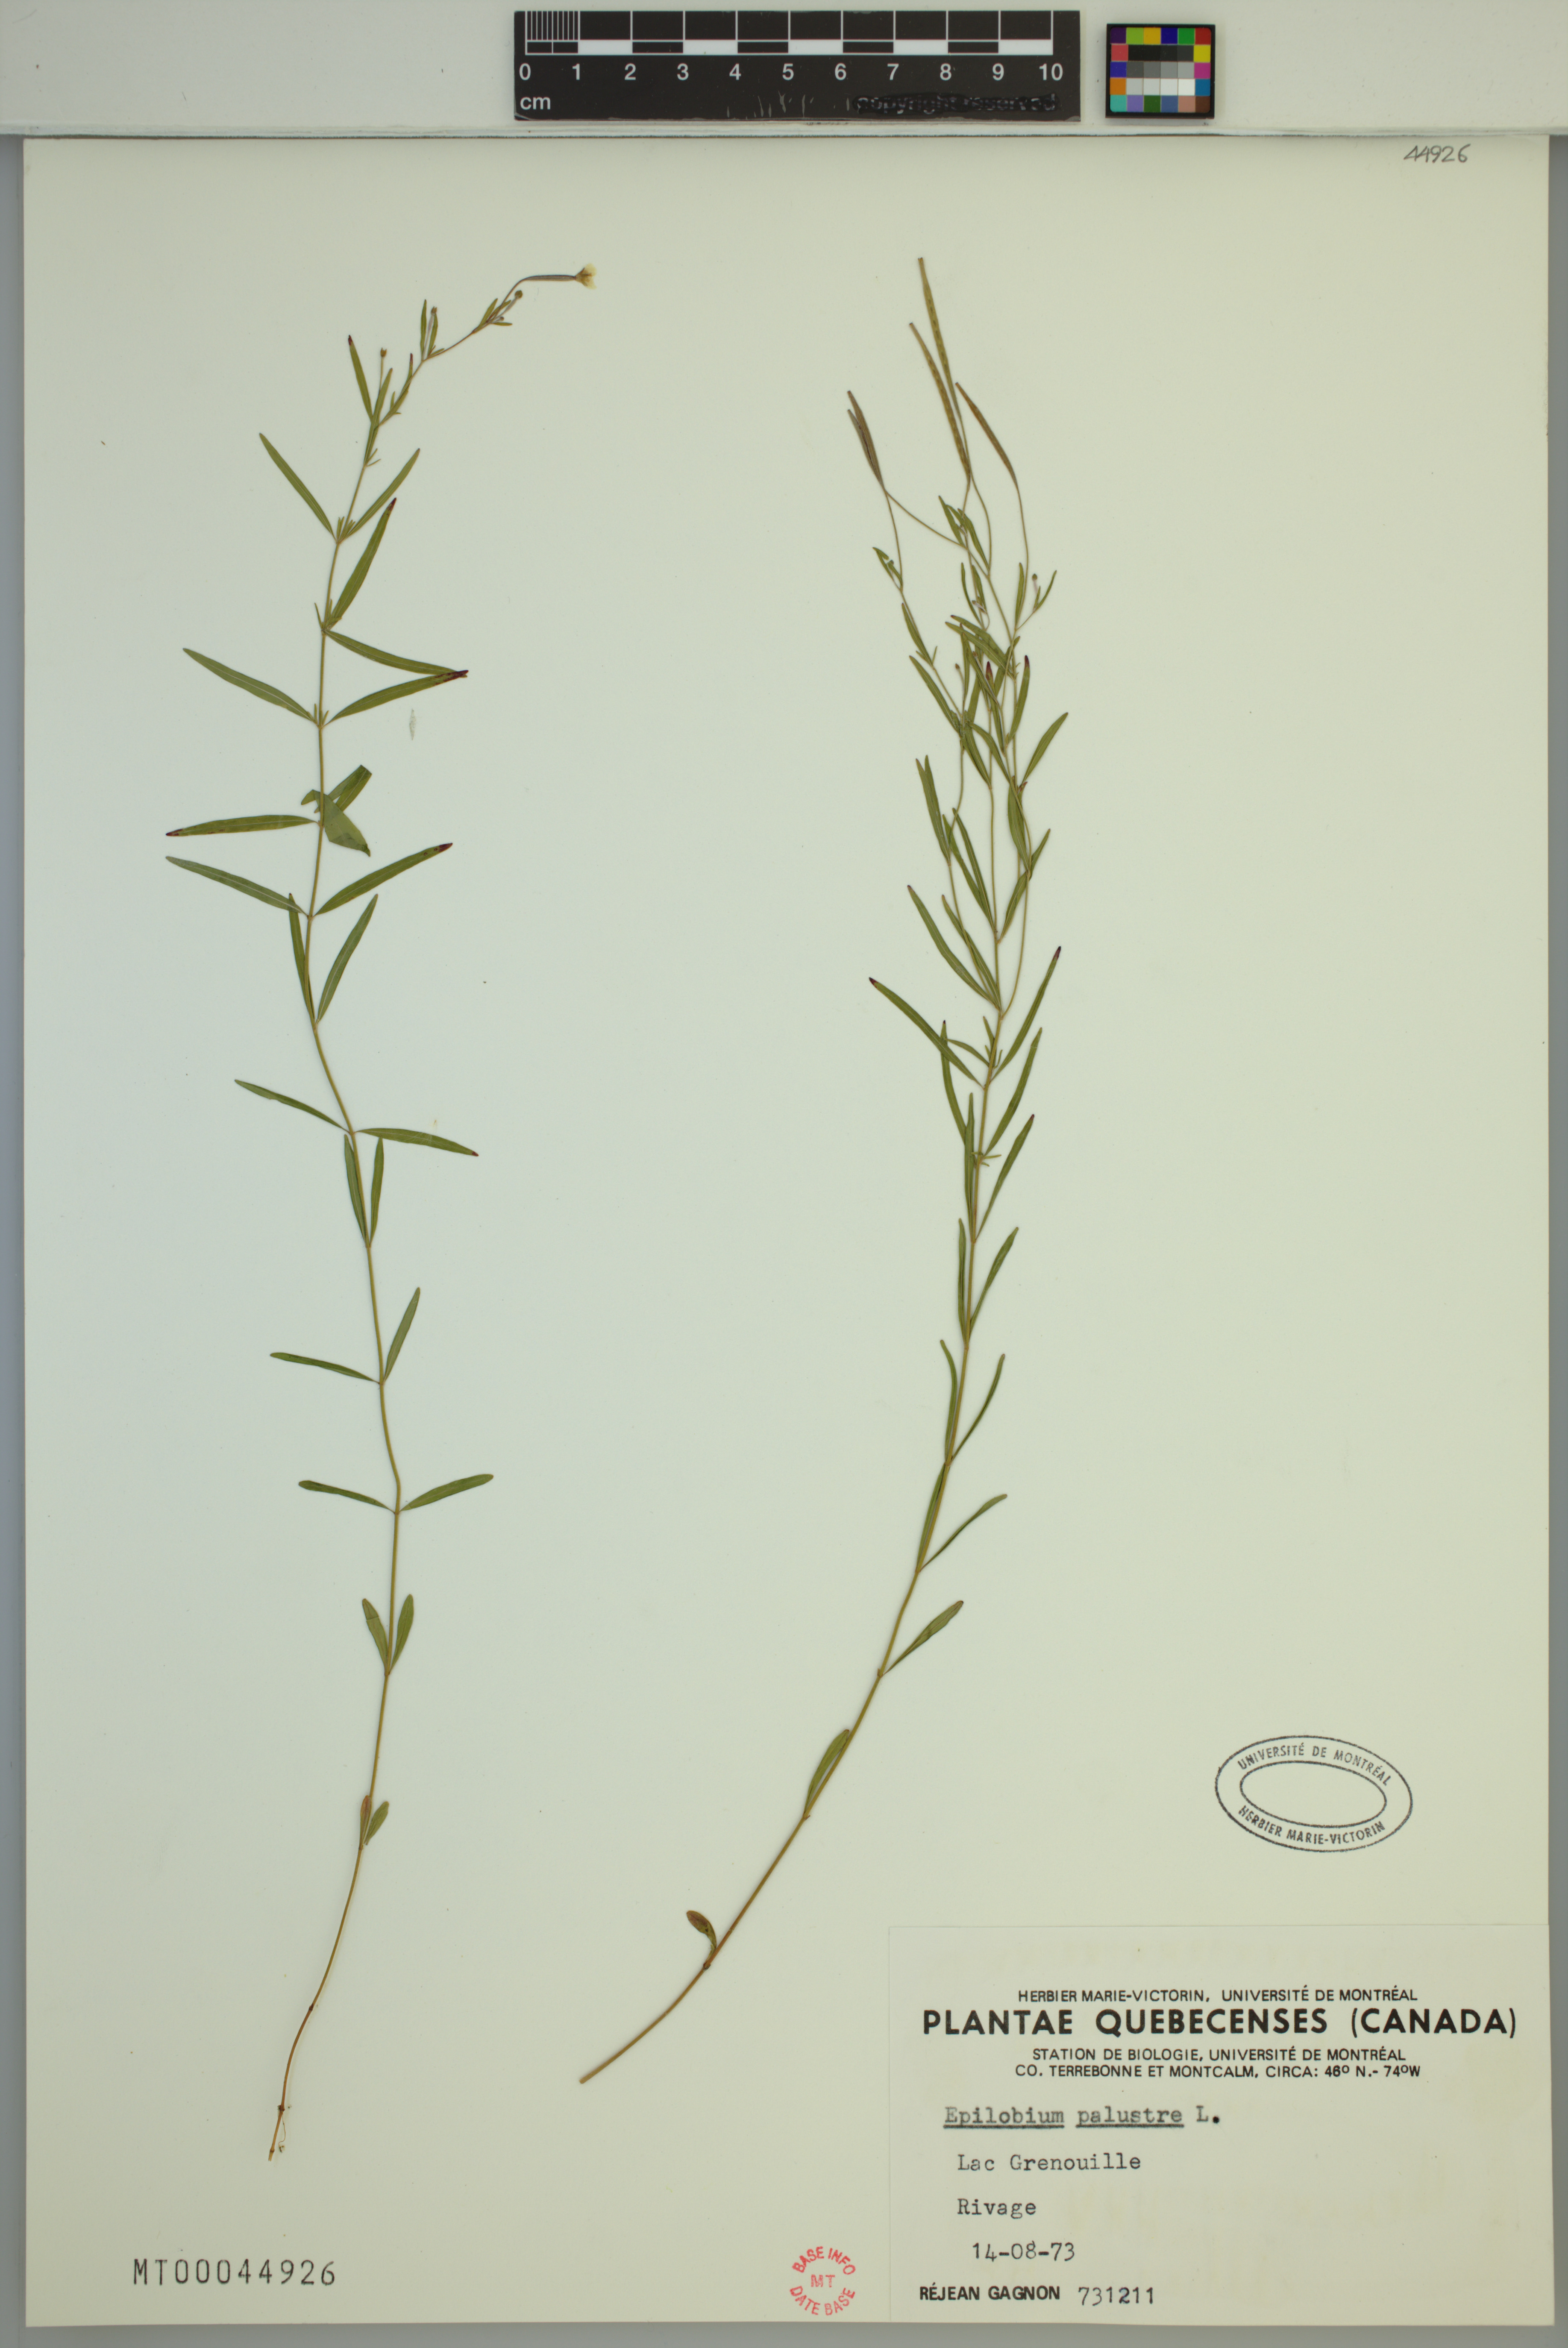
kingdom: Plantae
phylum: Tracheophyta
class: Magnoliopsida
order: Myrtales
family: Onagraceae
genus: Epilobium
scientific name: Epilobium palustre
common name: Marsh willowherb
